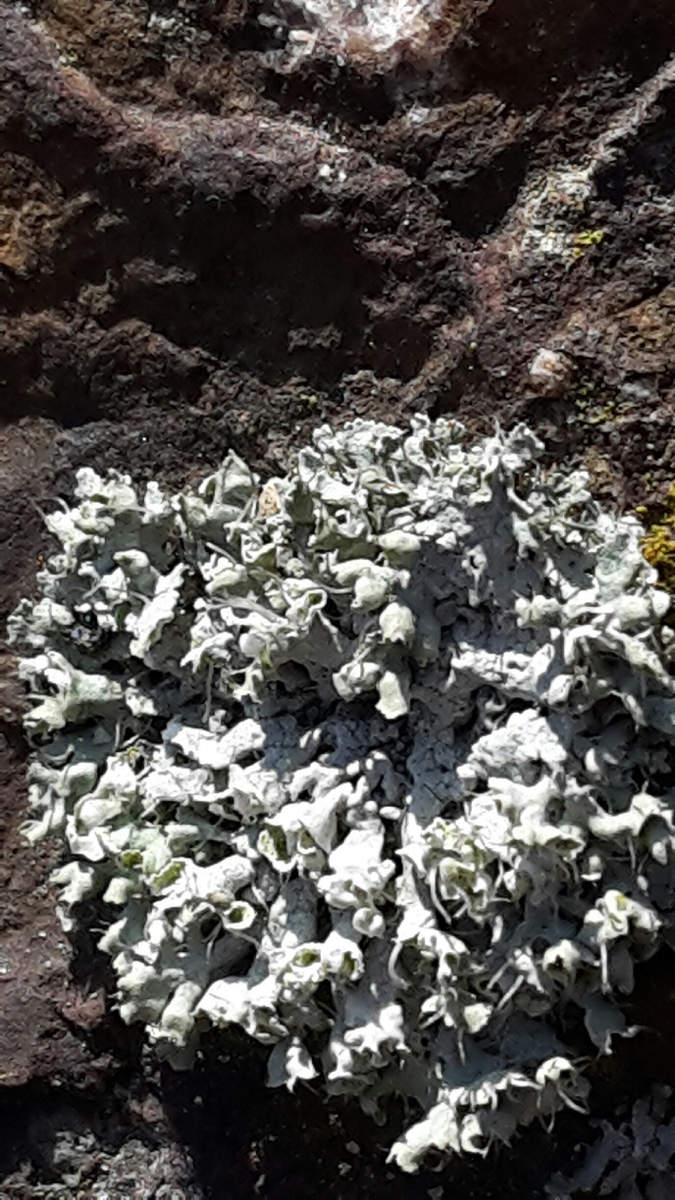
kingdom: Fungi
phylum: Ascomycota
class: Lecanoromycetes
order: Caliciales
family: Physciaceae
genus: Physcia
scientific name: Physcia adscendens
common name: hætte-rosetlav
